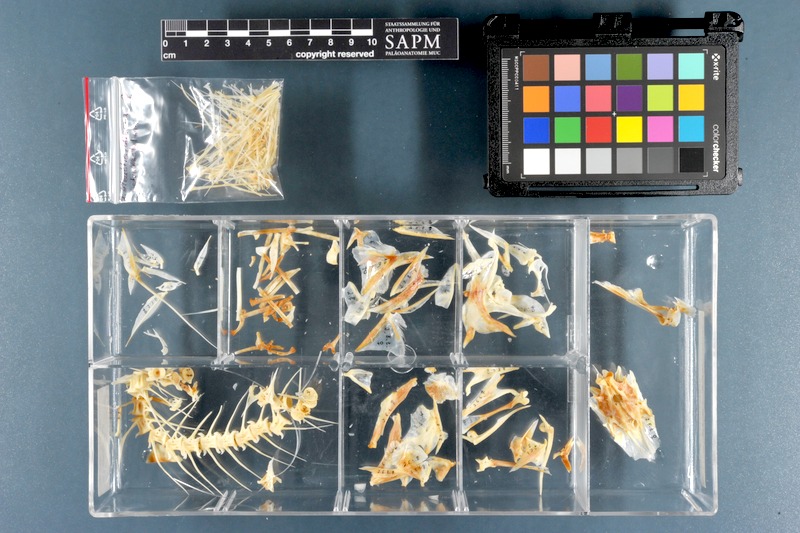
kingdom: Animalia
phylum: Chordata
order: Perciformes
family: Polynemidae
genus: Eleutheronema
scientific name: Eleutheronema tetradactylum
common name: Fourfinger threadfin
